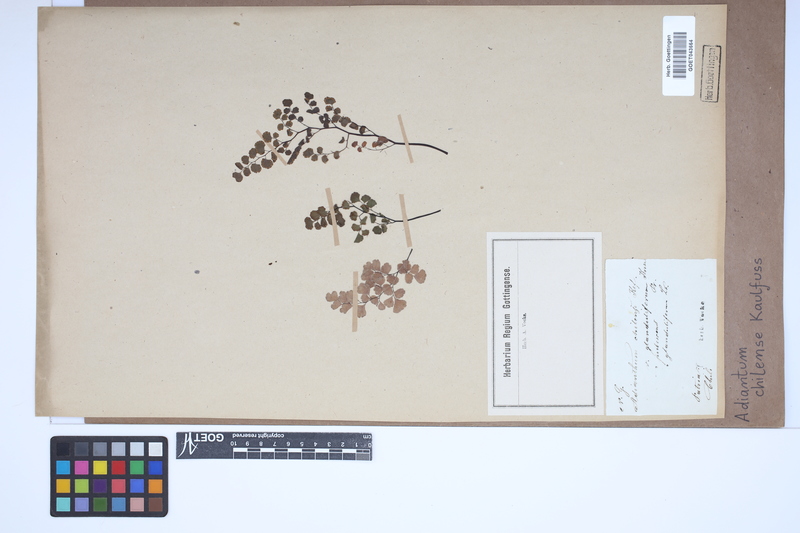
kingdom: Plantae
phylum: Tracheophyta
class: Polypodiopsida
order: Polypodiales
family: Pteridaceae
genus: Adiantum
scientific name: Adiantum chilense
